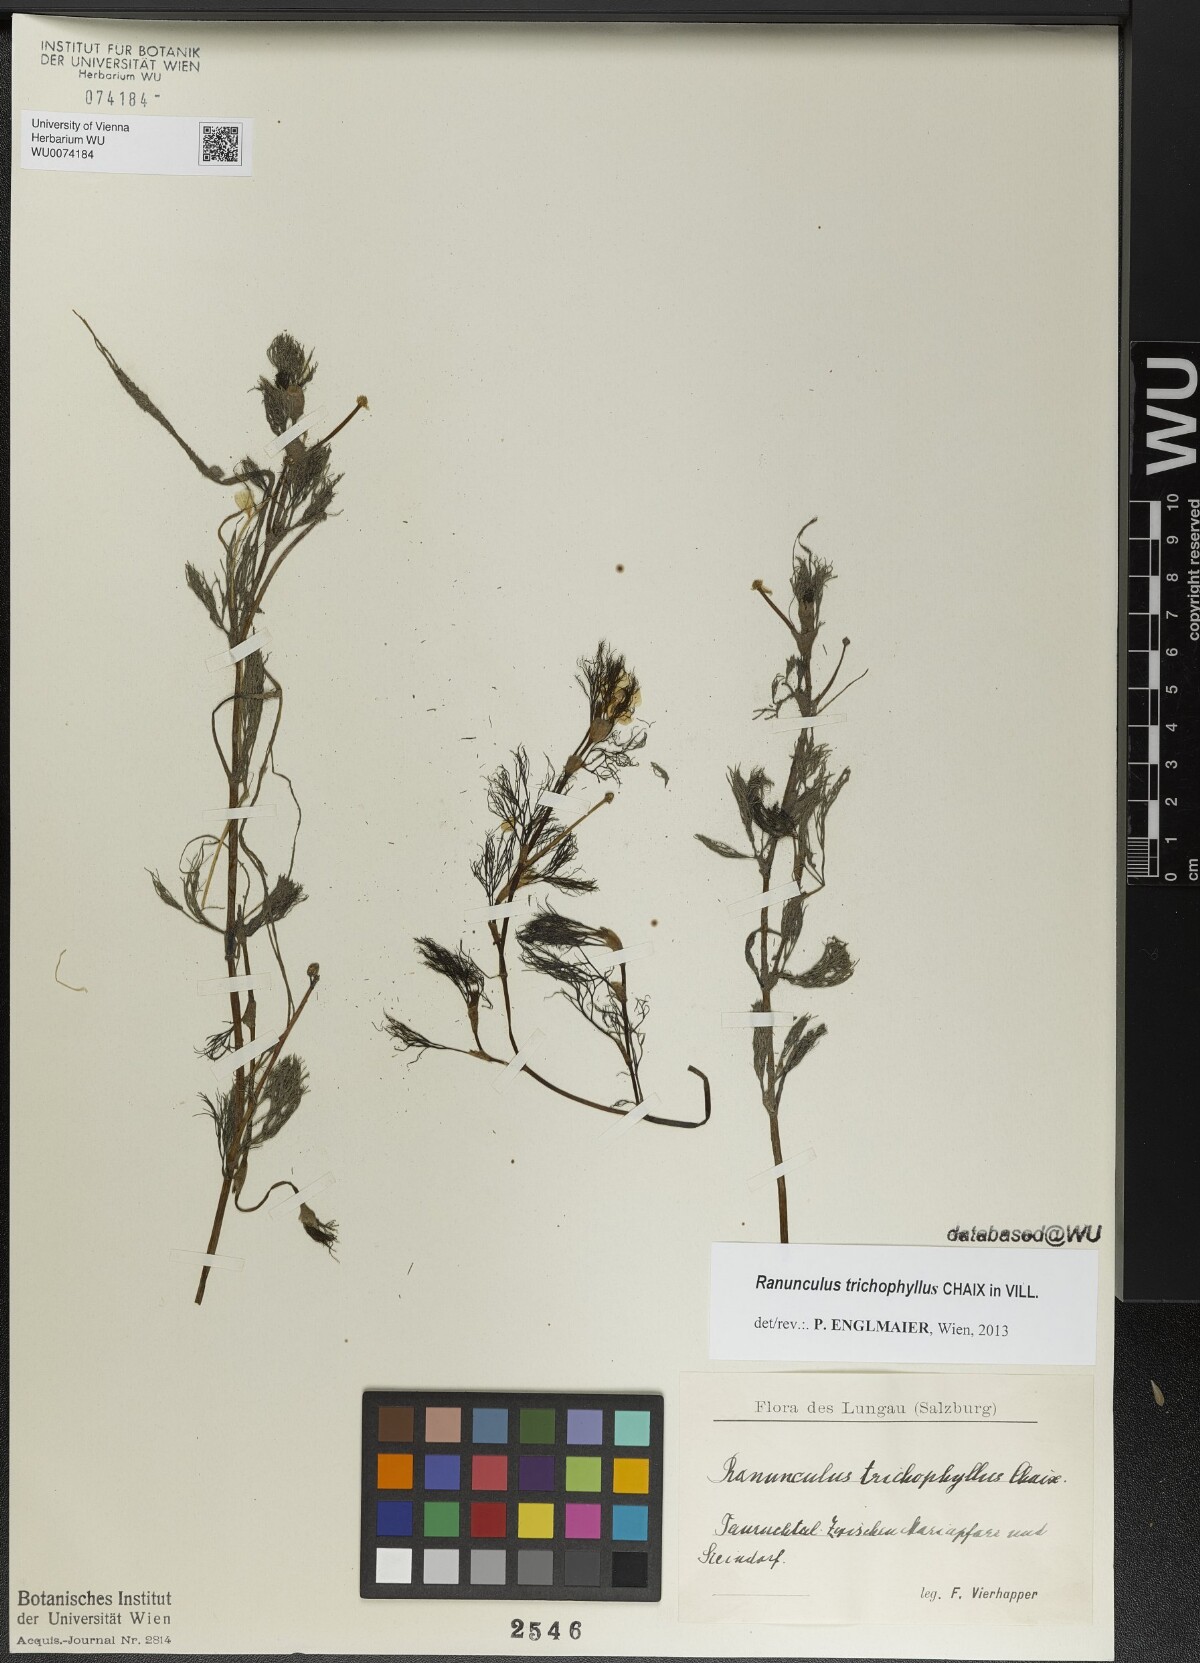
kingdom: Plantae
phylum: Tracheophyta
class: Magnoliopsida
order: Ranunculales
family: Ranunculaceae
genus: Ranunculus
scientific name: Ranunculus trichophyllus
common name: Thread-leaved water-crowfoot
